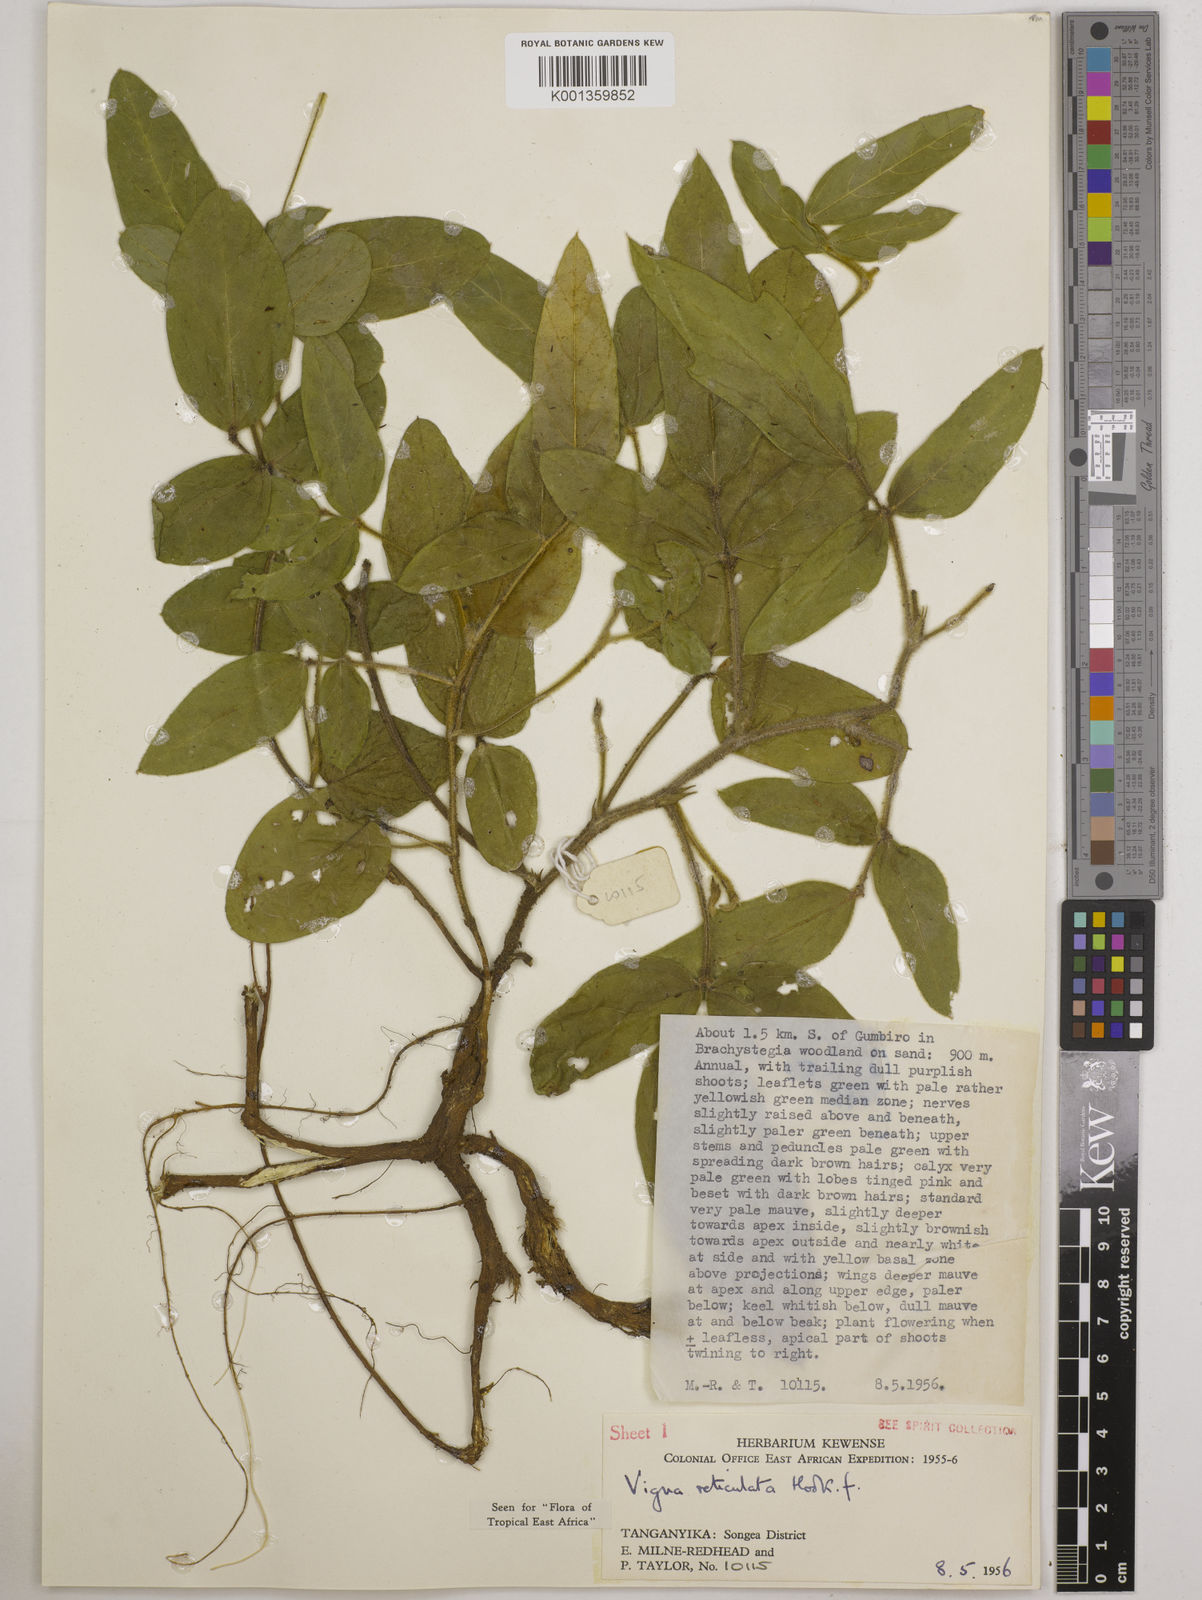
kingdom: Plantae
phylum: Tracheophyta
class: Magnoliopsida
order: Fabales
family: Fabaceae
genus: Vigna
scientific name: Vigna reticulata
